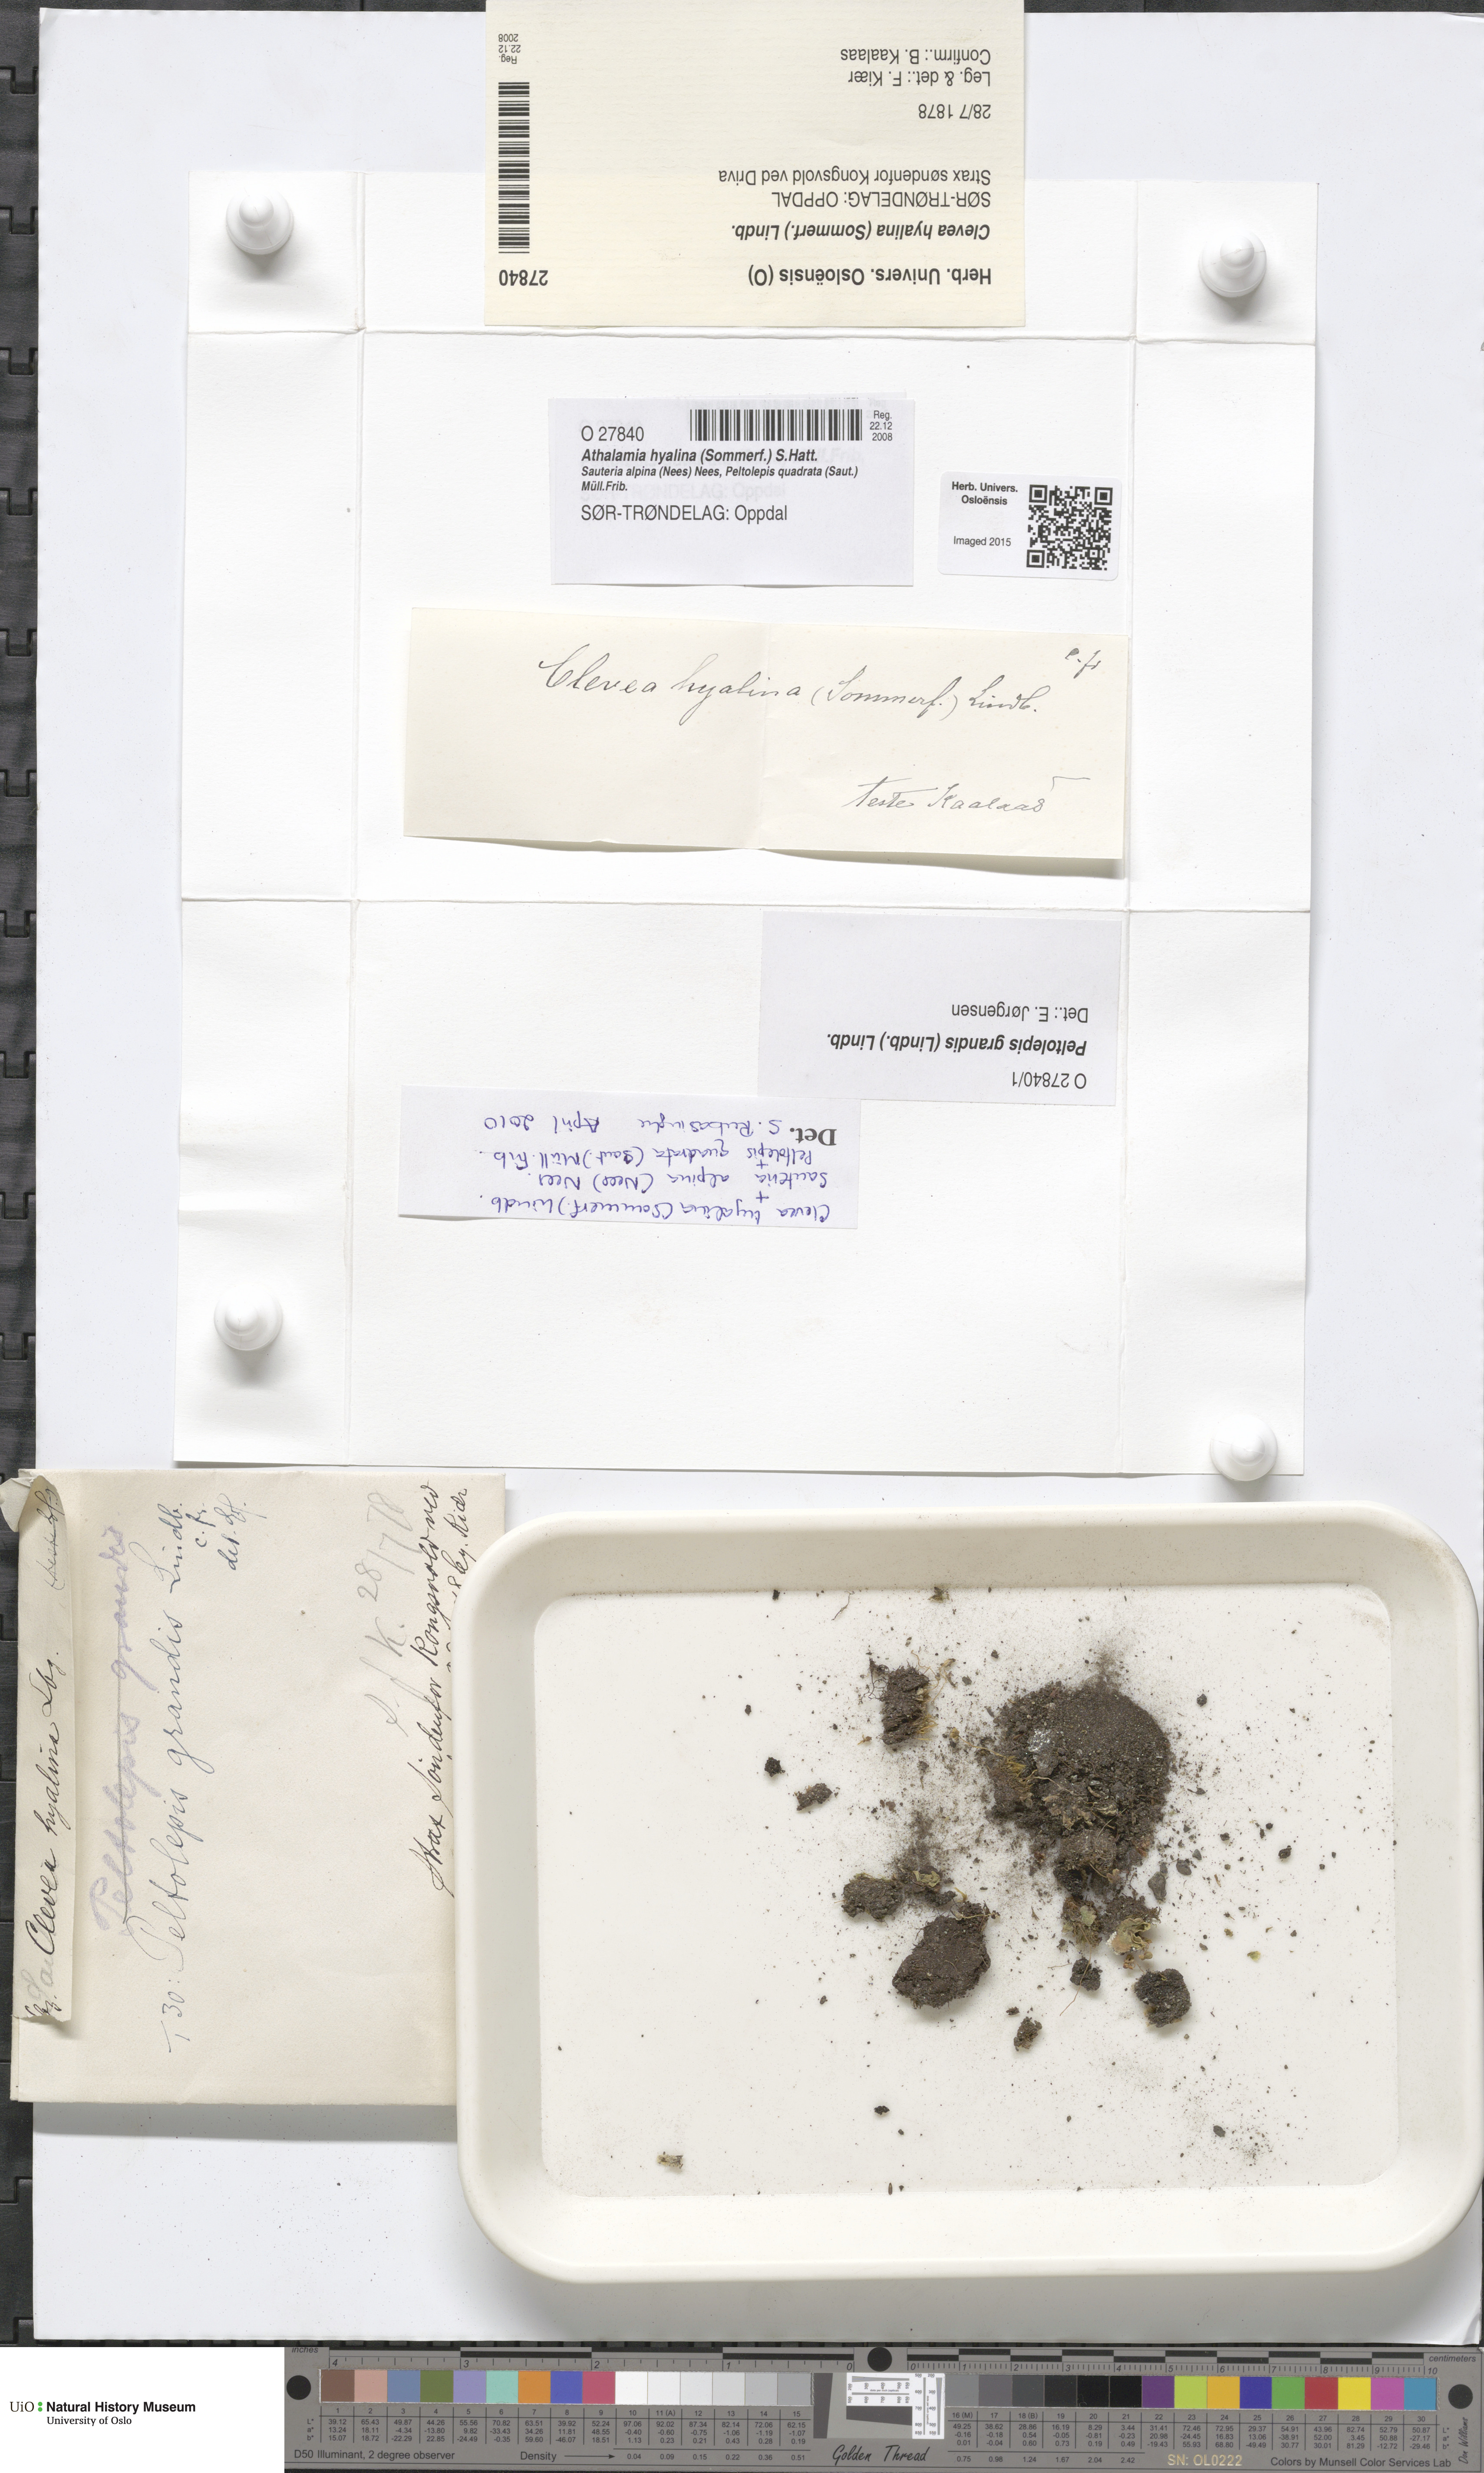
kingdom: Plantae
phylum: Marchantiophyta
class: Marchantiopsida
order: Marchantiales
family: Cleveaceae
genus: Clevea
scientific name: Clevea hyalina
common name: Hyaline liverwort
